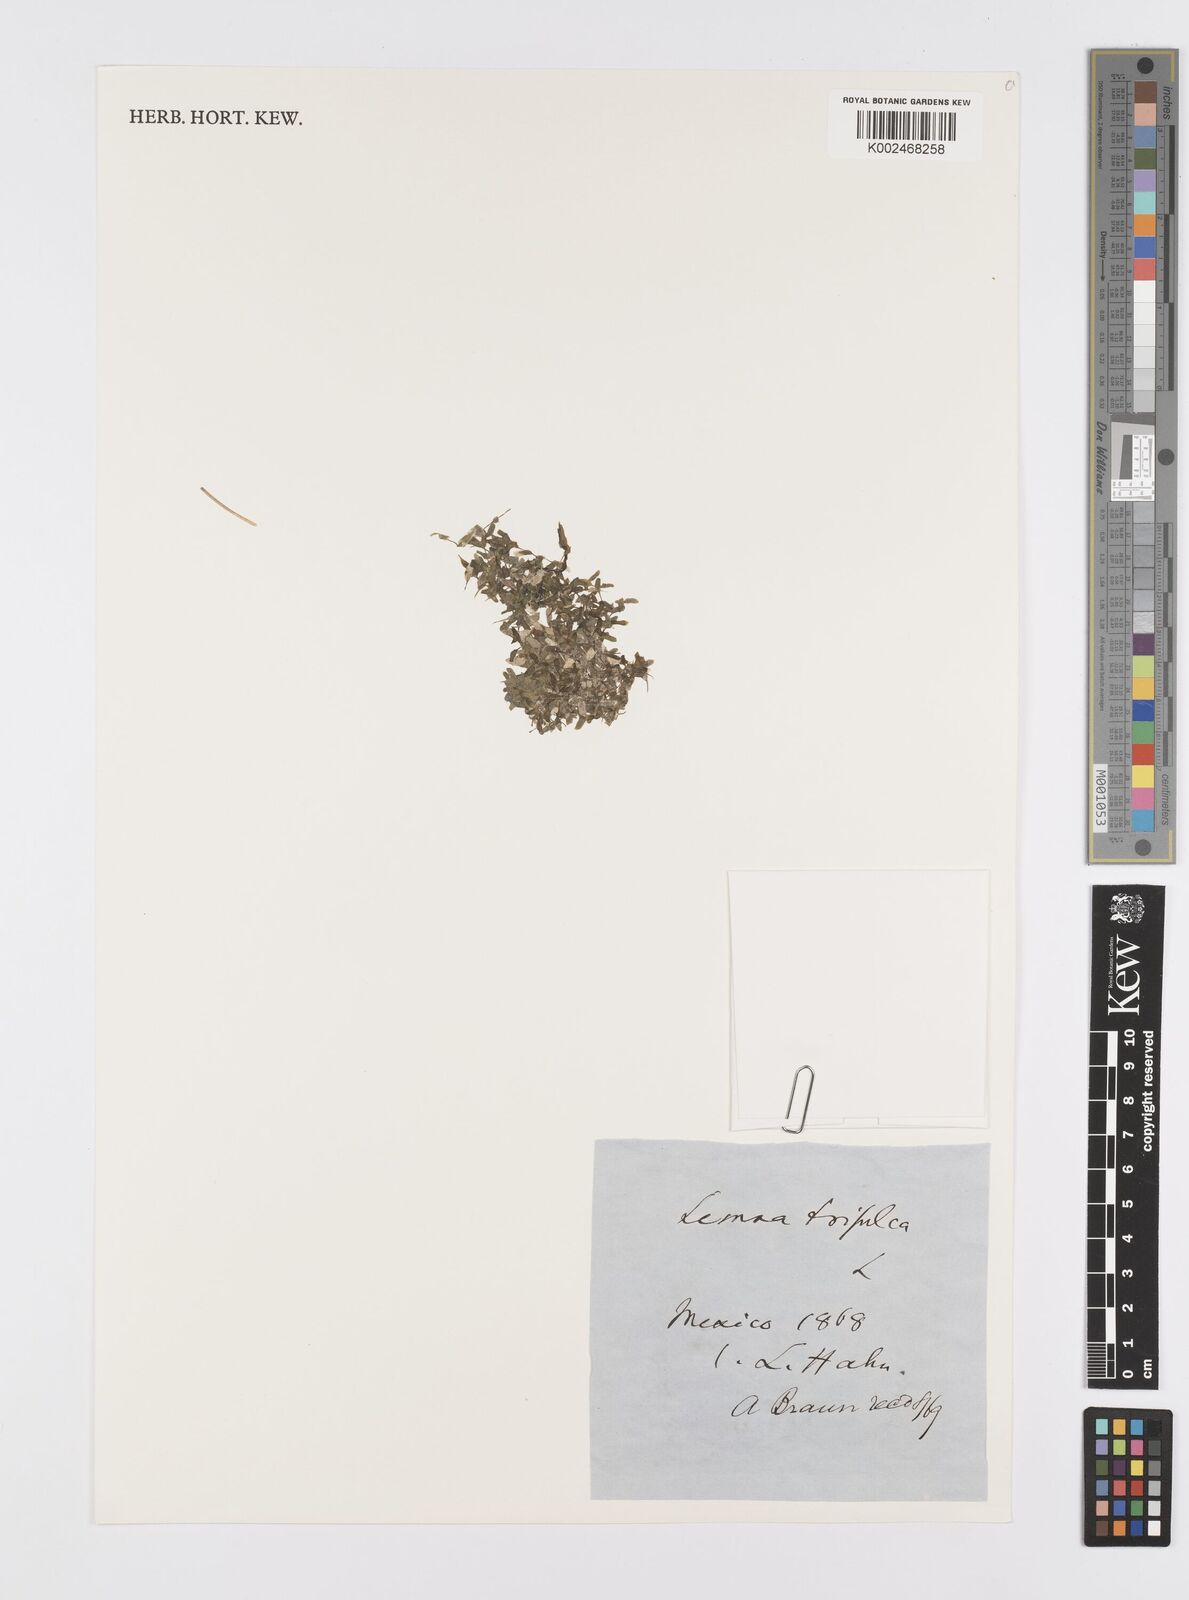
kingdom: Plantae
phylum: Tracheophyta
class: Liliopsida
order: Alismatales
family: Araceae
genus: Lemna
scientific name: Lemna trisulca
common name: Ivy-leaved duckweed
